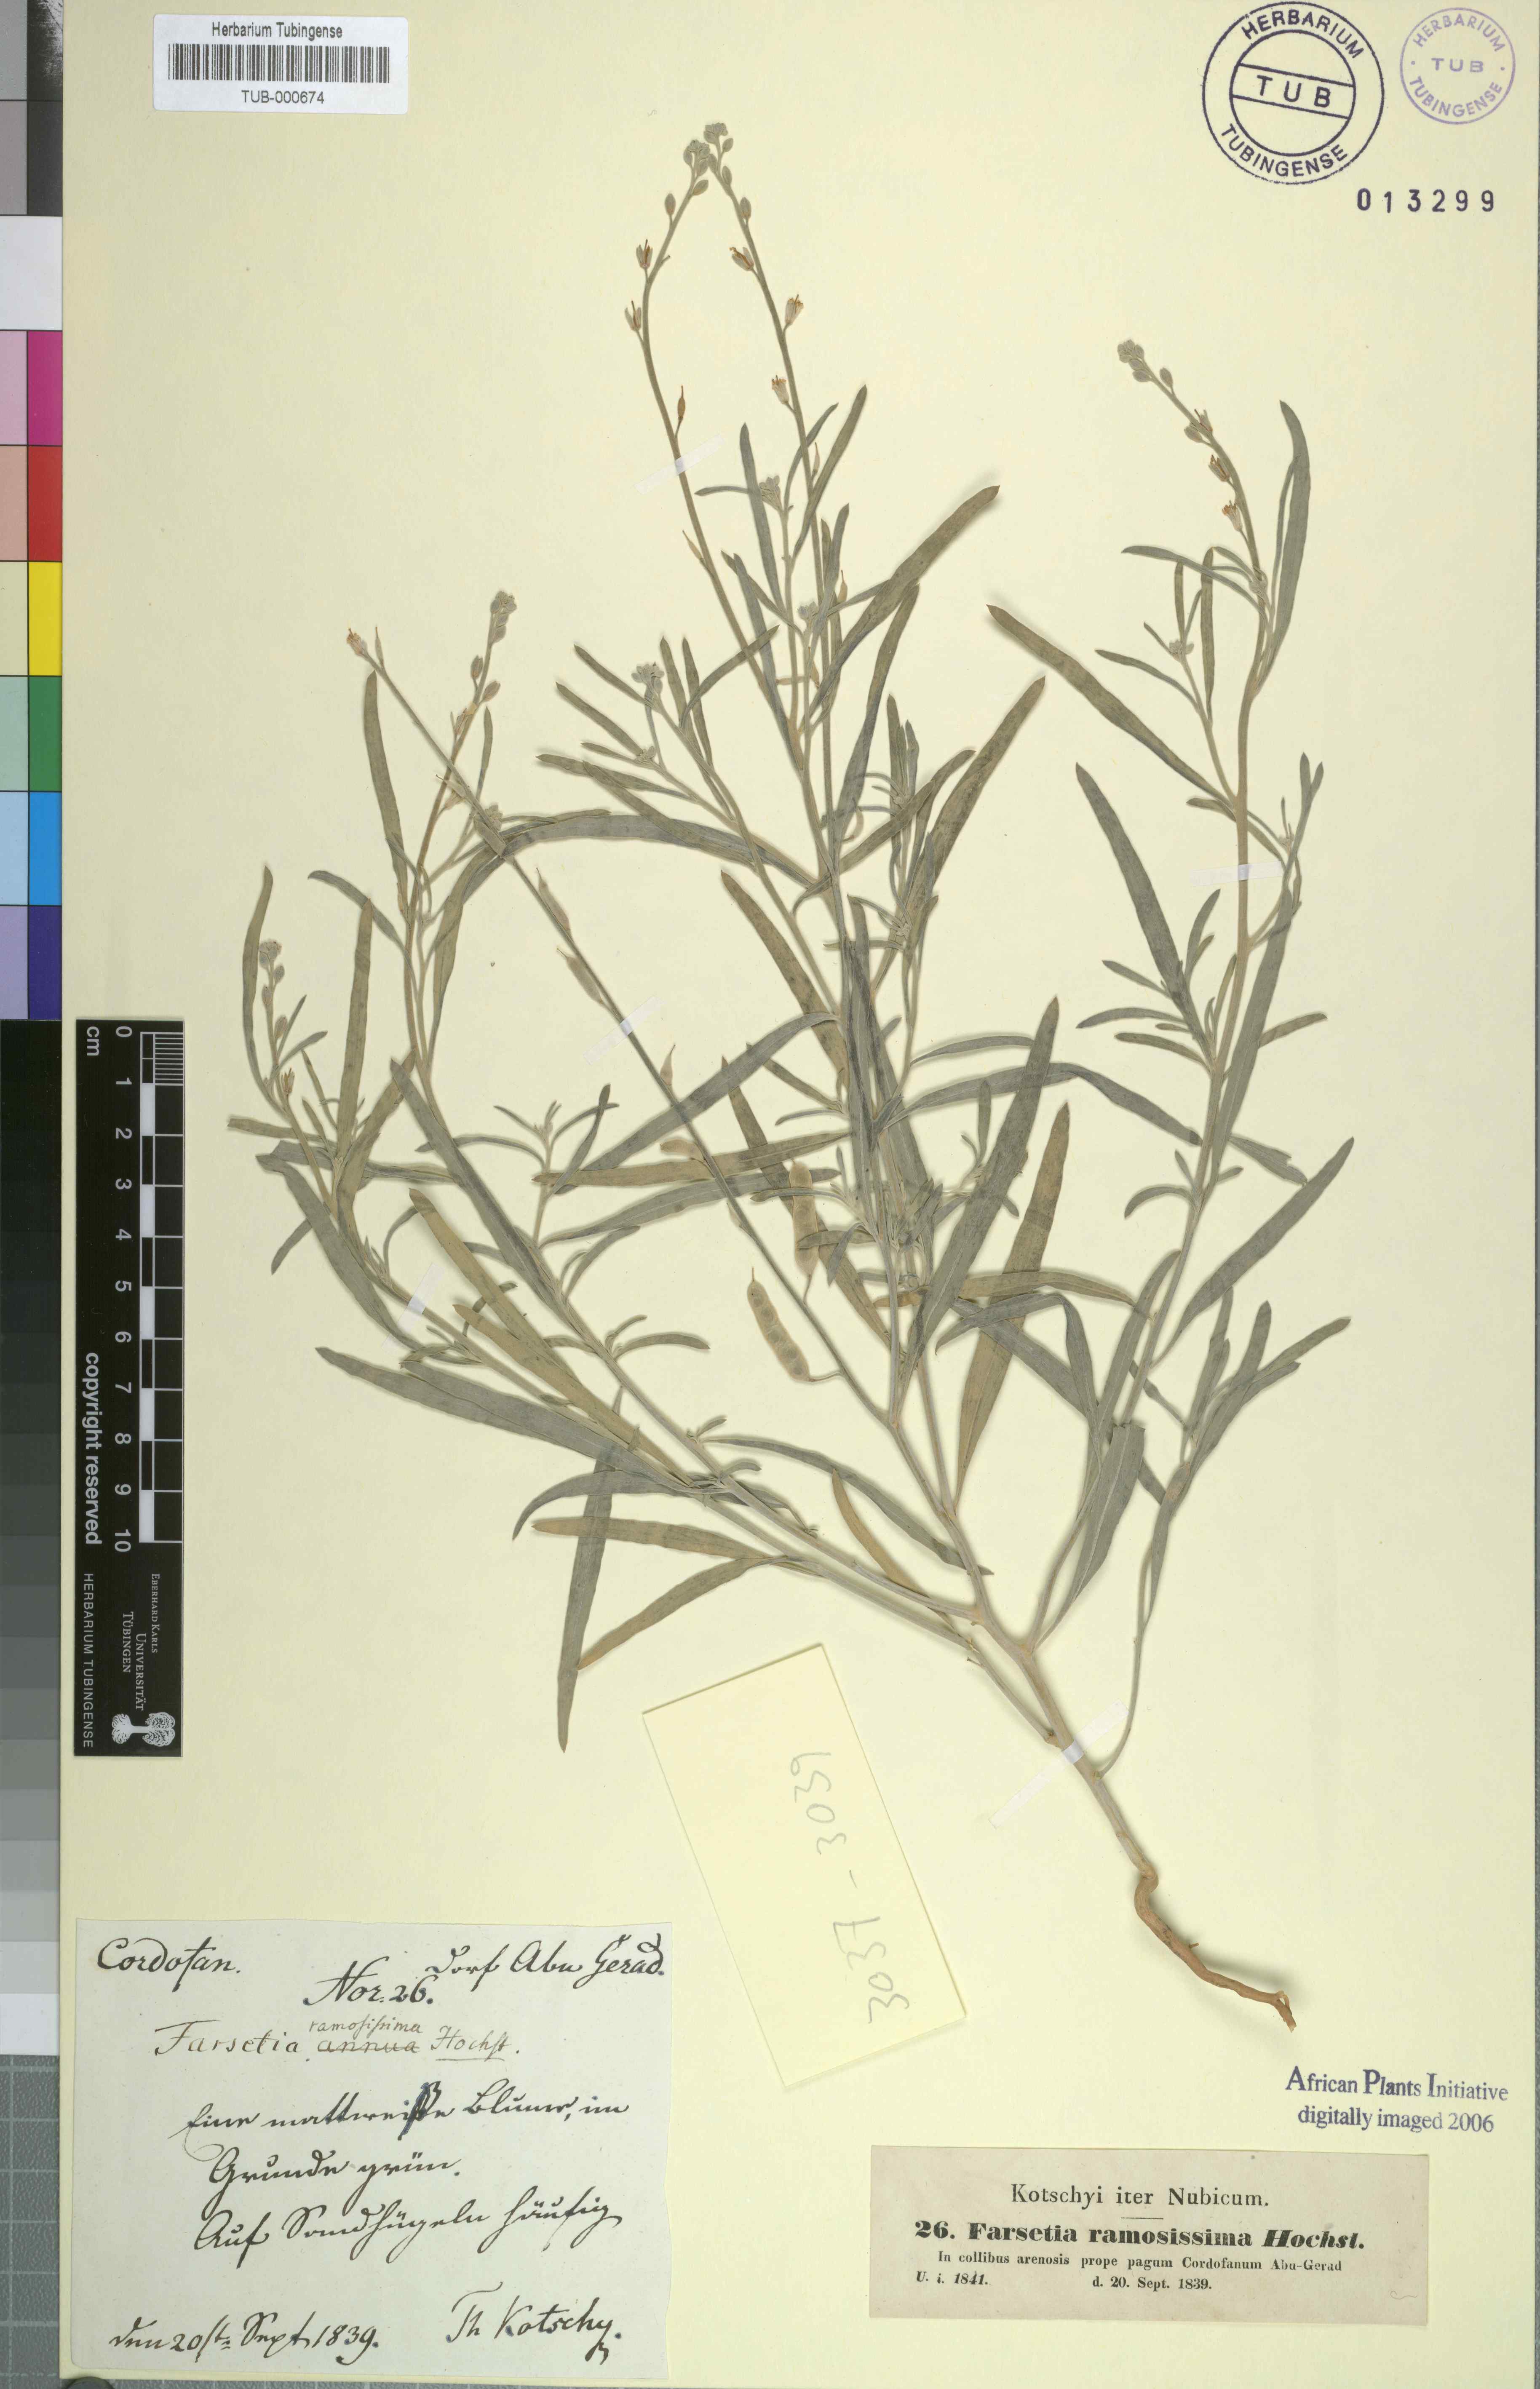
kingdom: Plantae
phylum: Tracheophyta
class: Magnoliopsida
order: Brassicales
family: Brassicaceae
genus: Farsetia
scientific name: Farsetia stylosa
